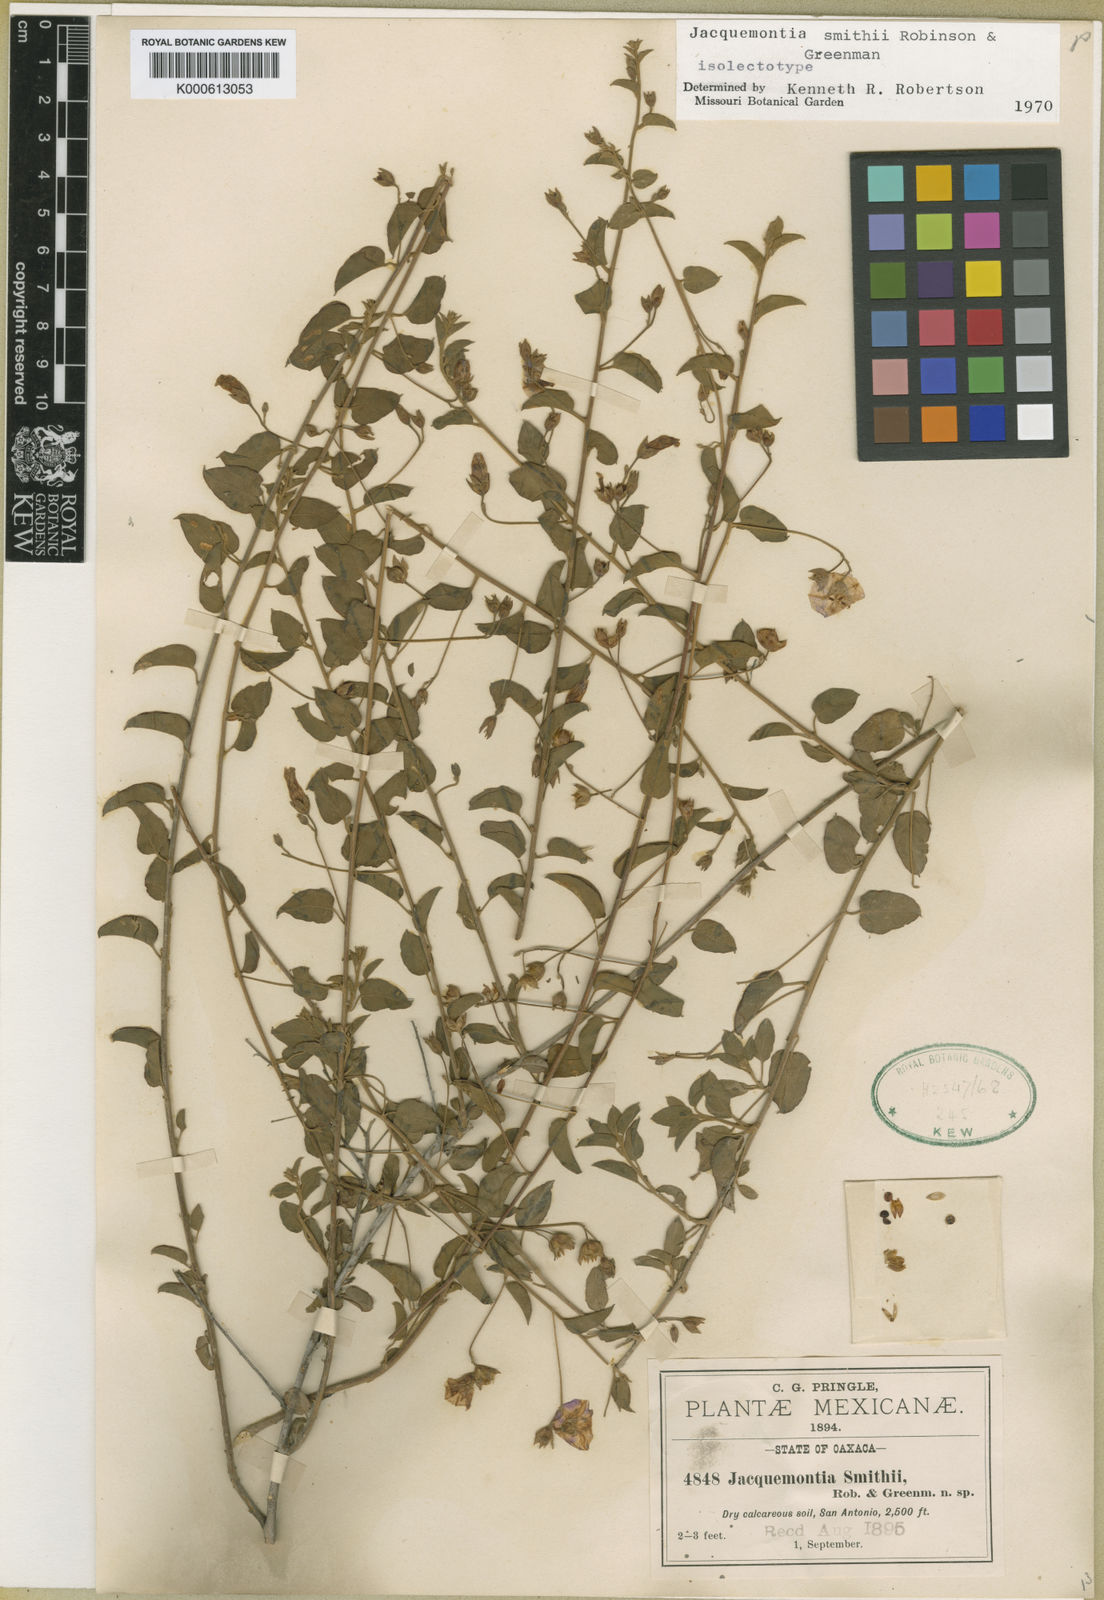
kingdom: Plantae
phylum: Tracheophyta
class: Magnoliopsida
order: Solanales
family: Convolvulaceae
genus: Jacquemontia
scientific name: Jacquemontia smithii
